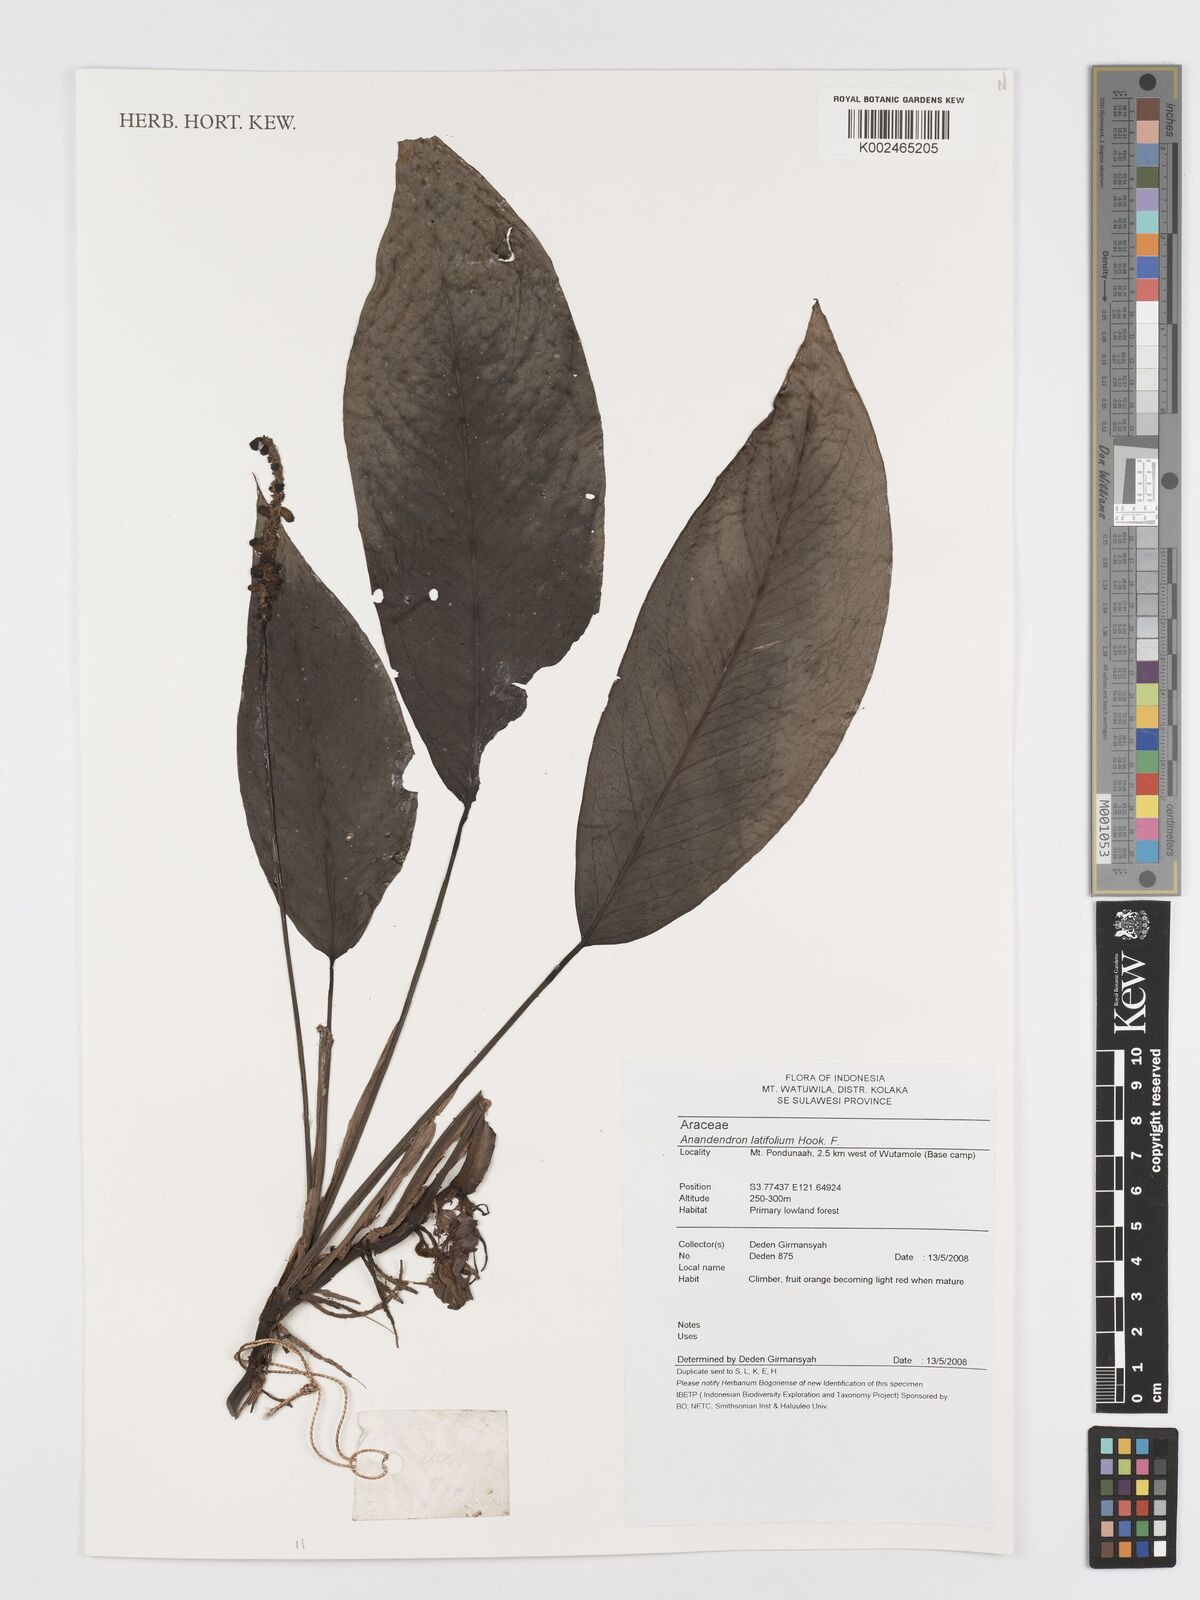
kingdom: Plantae
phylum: Tracheophyta
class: Liliopsida
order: Alismatales
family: Araceae
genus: Anadendrum
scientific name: Anadendrum latifolium
